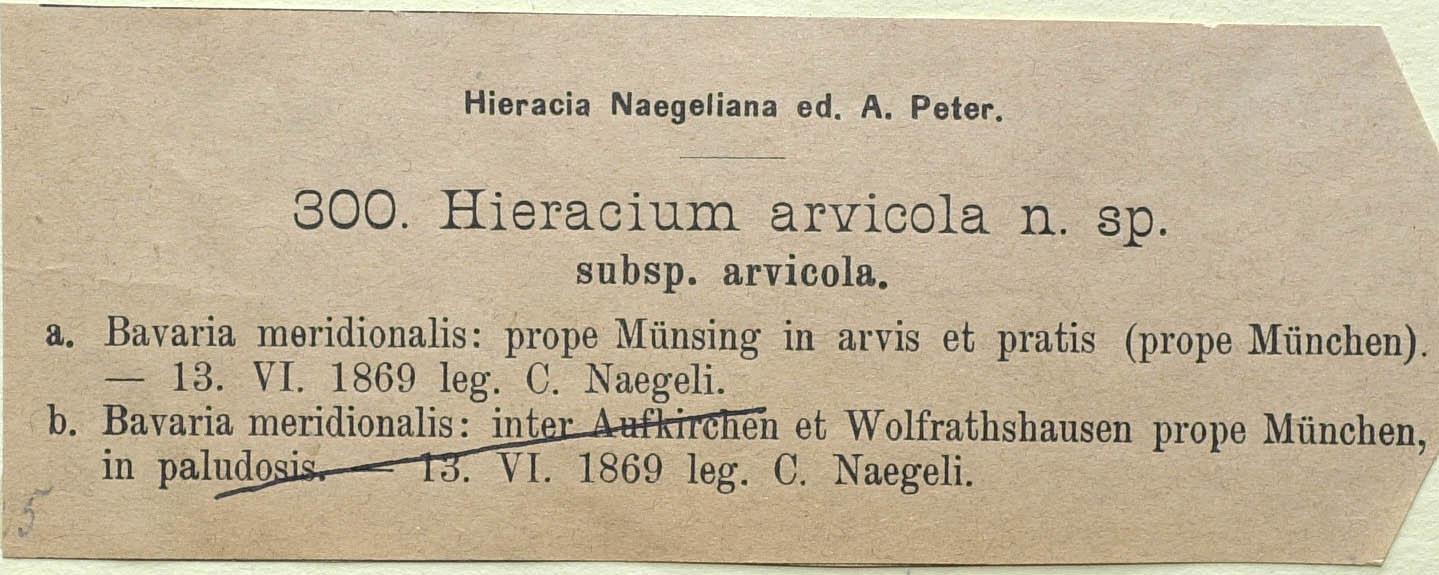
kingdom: Plantae
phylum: Tracheophyta
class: Magnoliopsida
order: Asterales
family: Asteraceae
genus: Pilosella
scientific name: Pilosella erythrochrista
